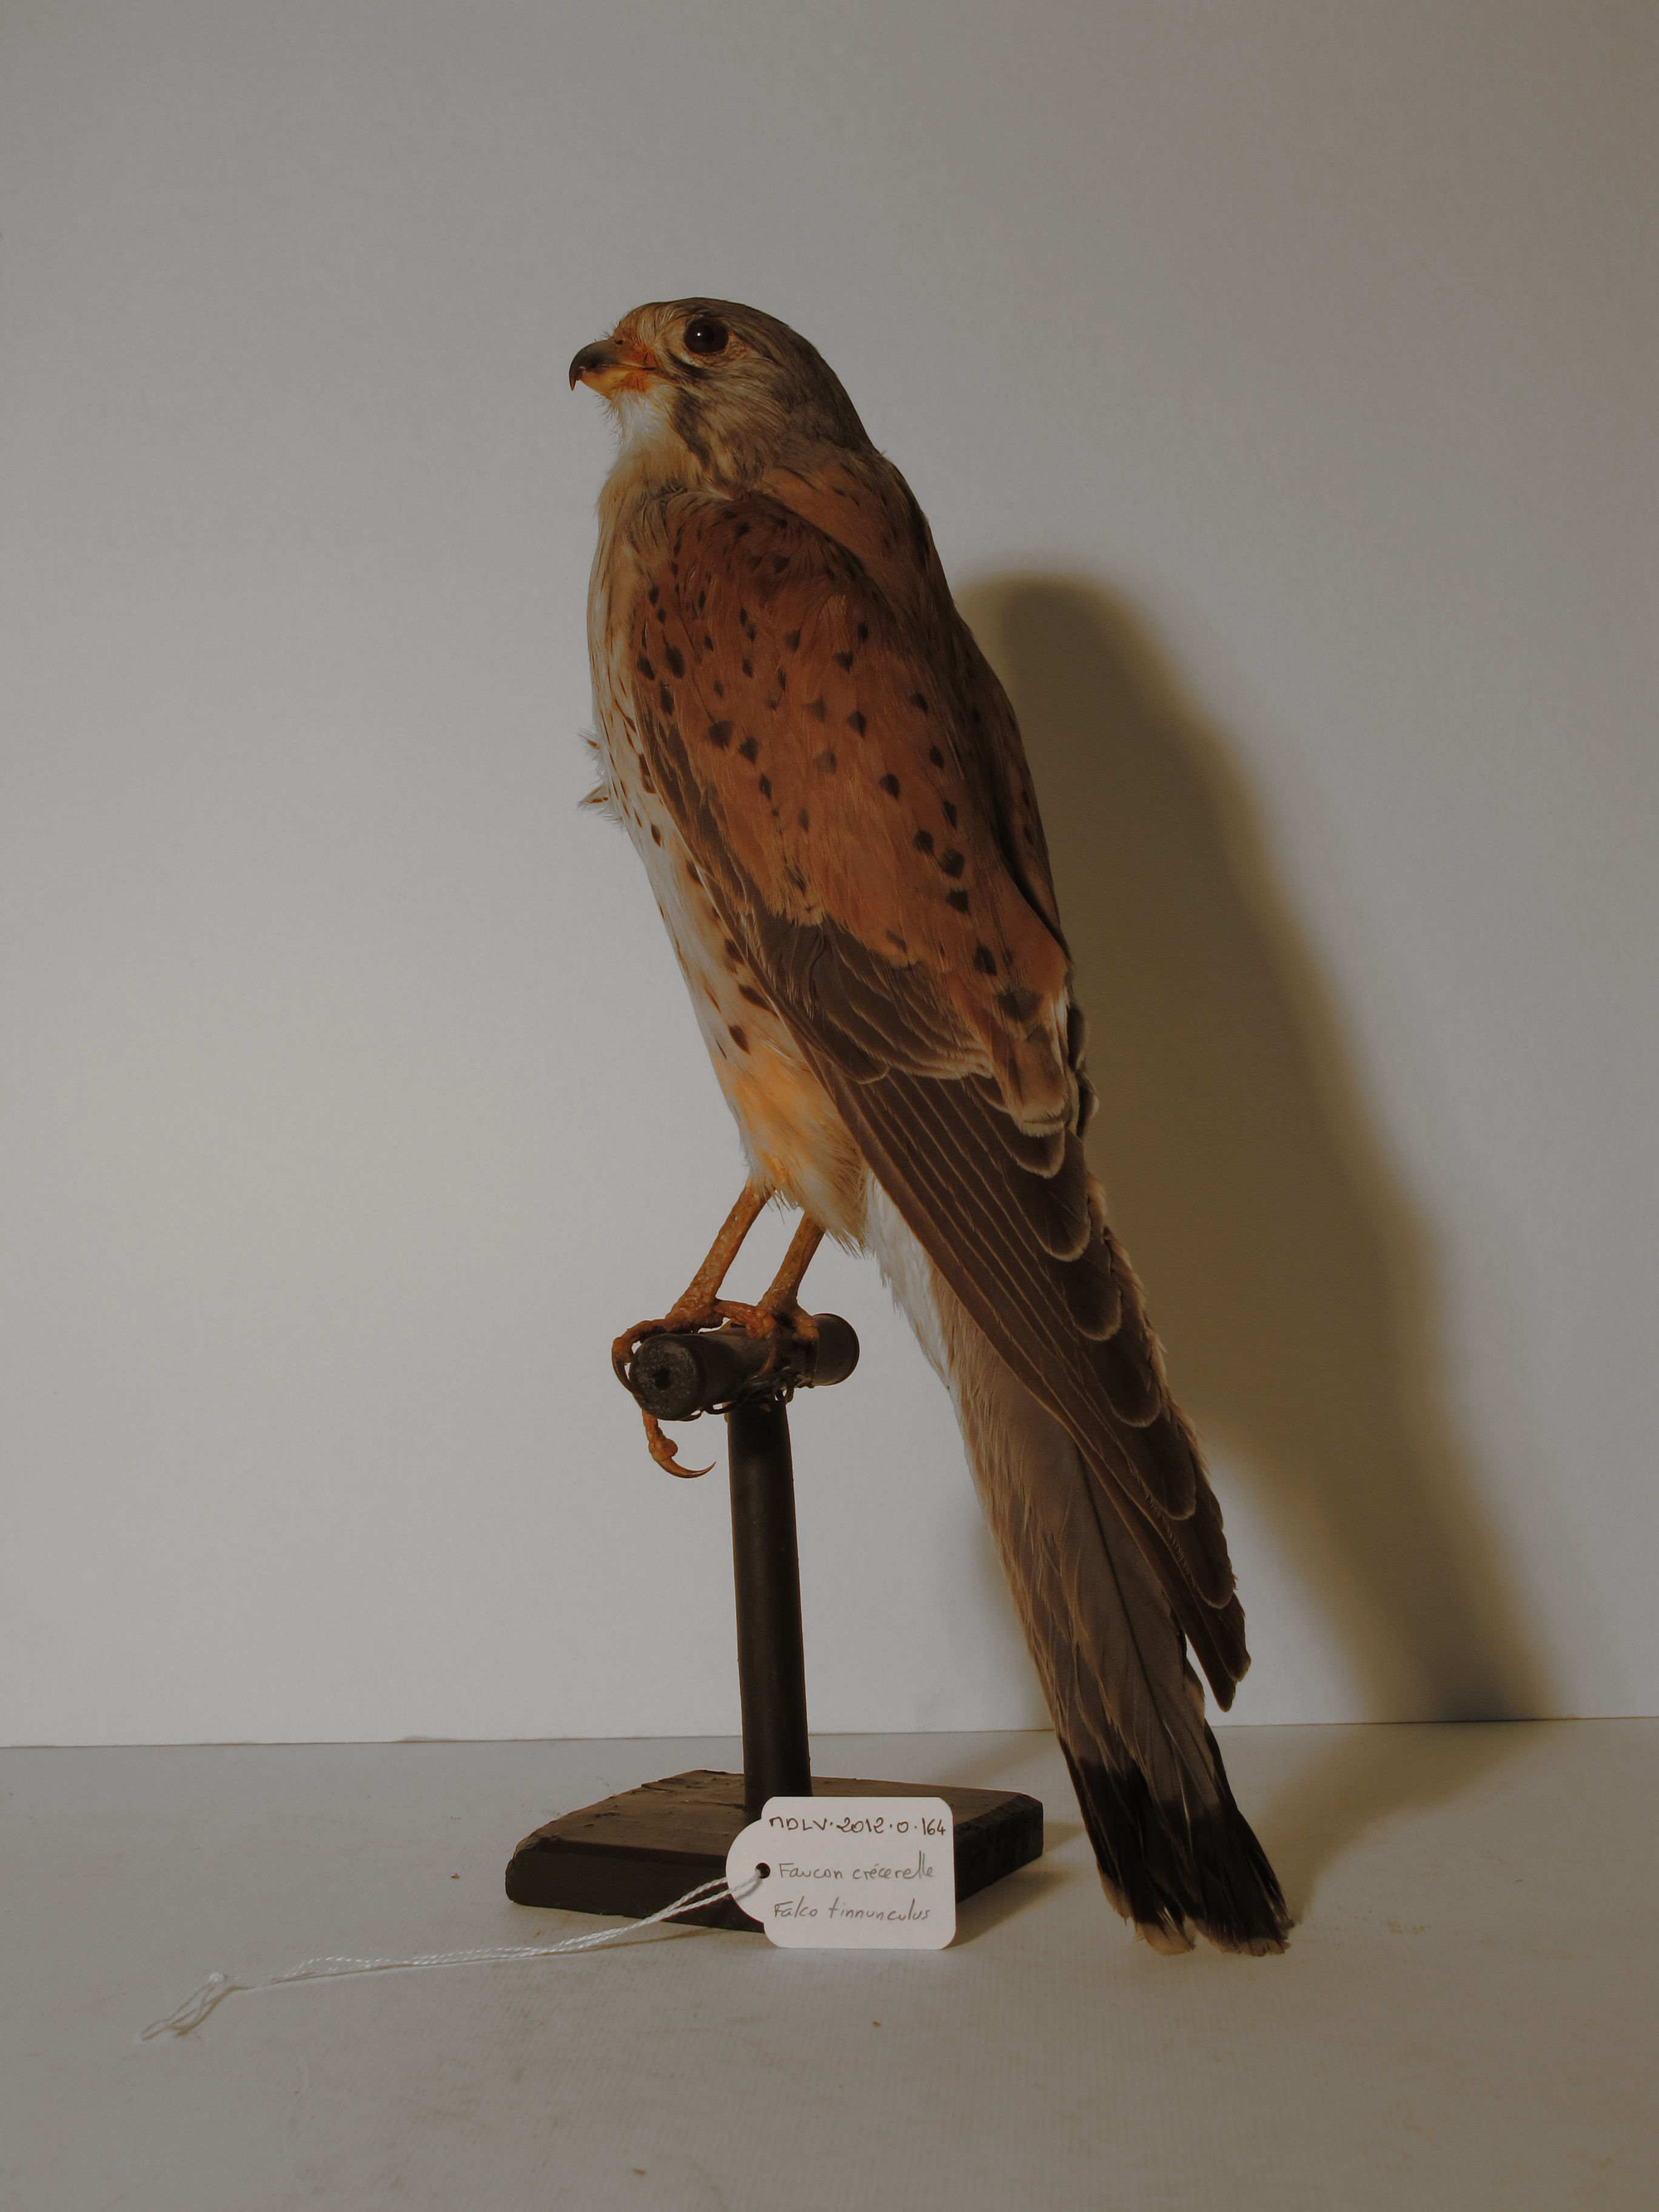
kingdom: Animalia
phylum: Chordata
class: Aves
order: Falconiformes
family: Falconidae
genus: Falco
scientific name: Falco tinnunculus
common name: Common Kestrel
